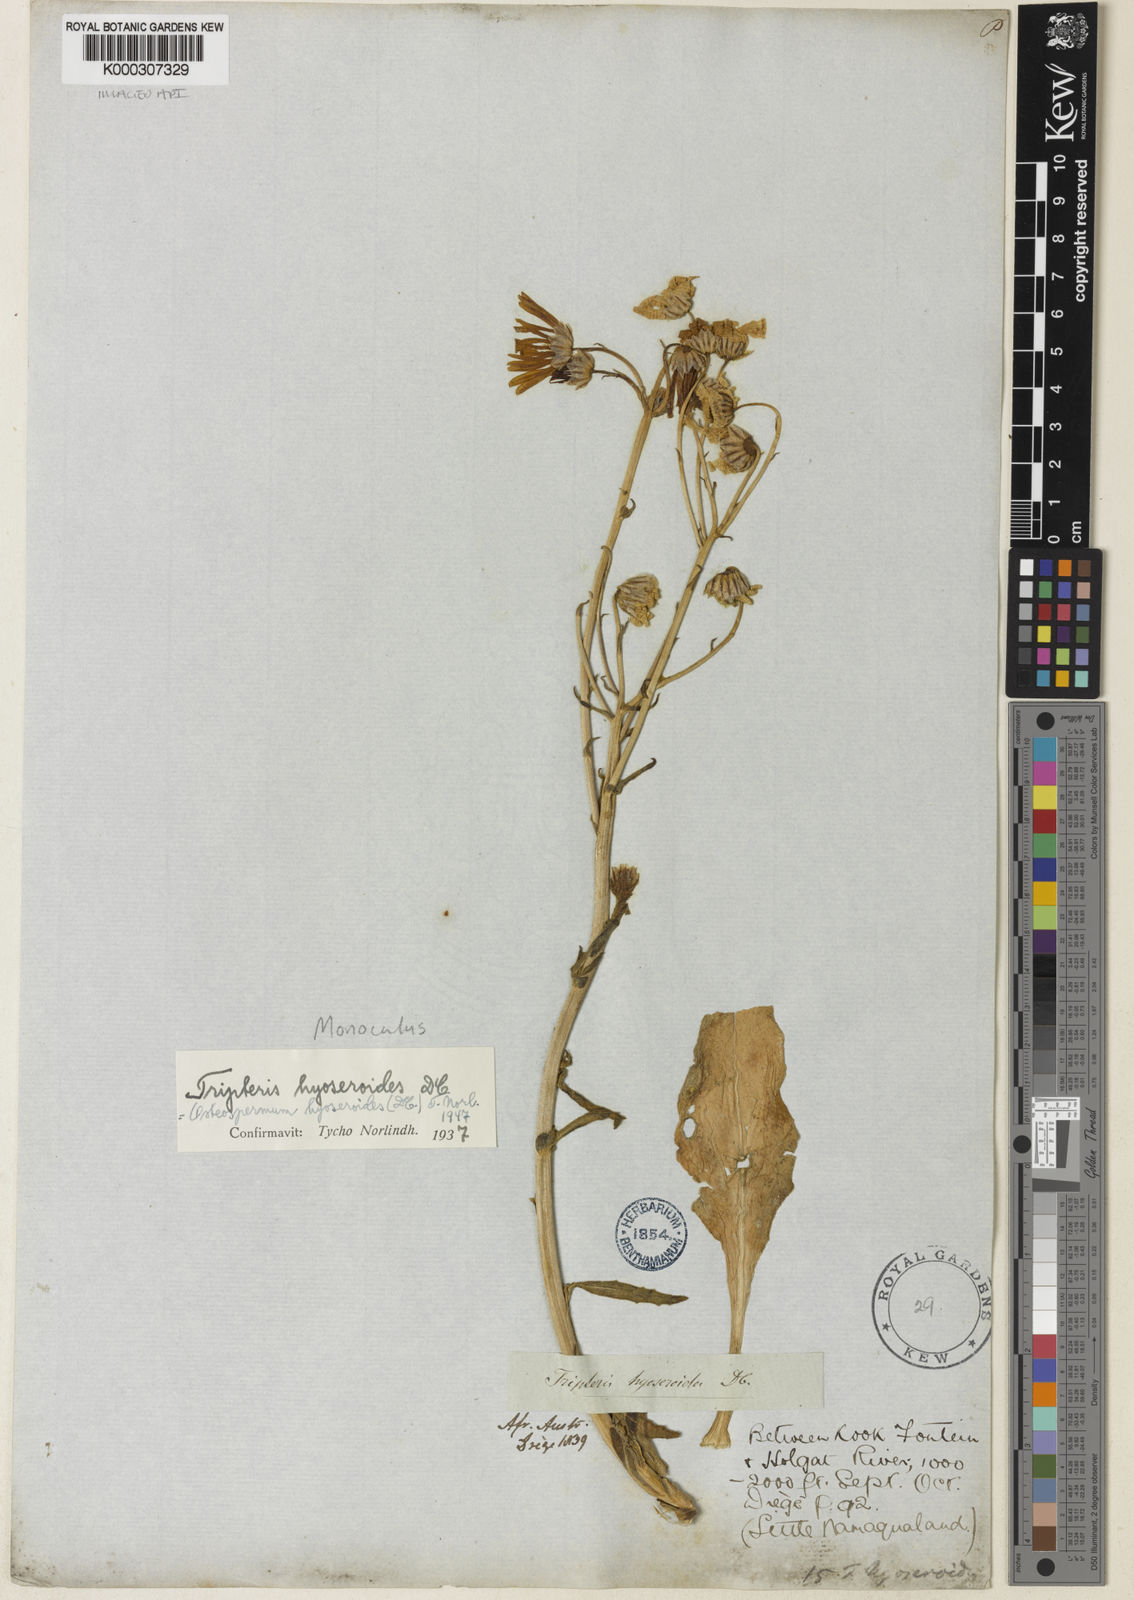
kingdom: Plantae
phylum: Tracheophyta
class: Magnoliopsida
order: Asterales
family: Asteraceae
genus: Osteospermum
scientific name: Osteospermum hyoseroides
